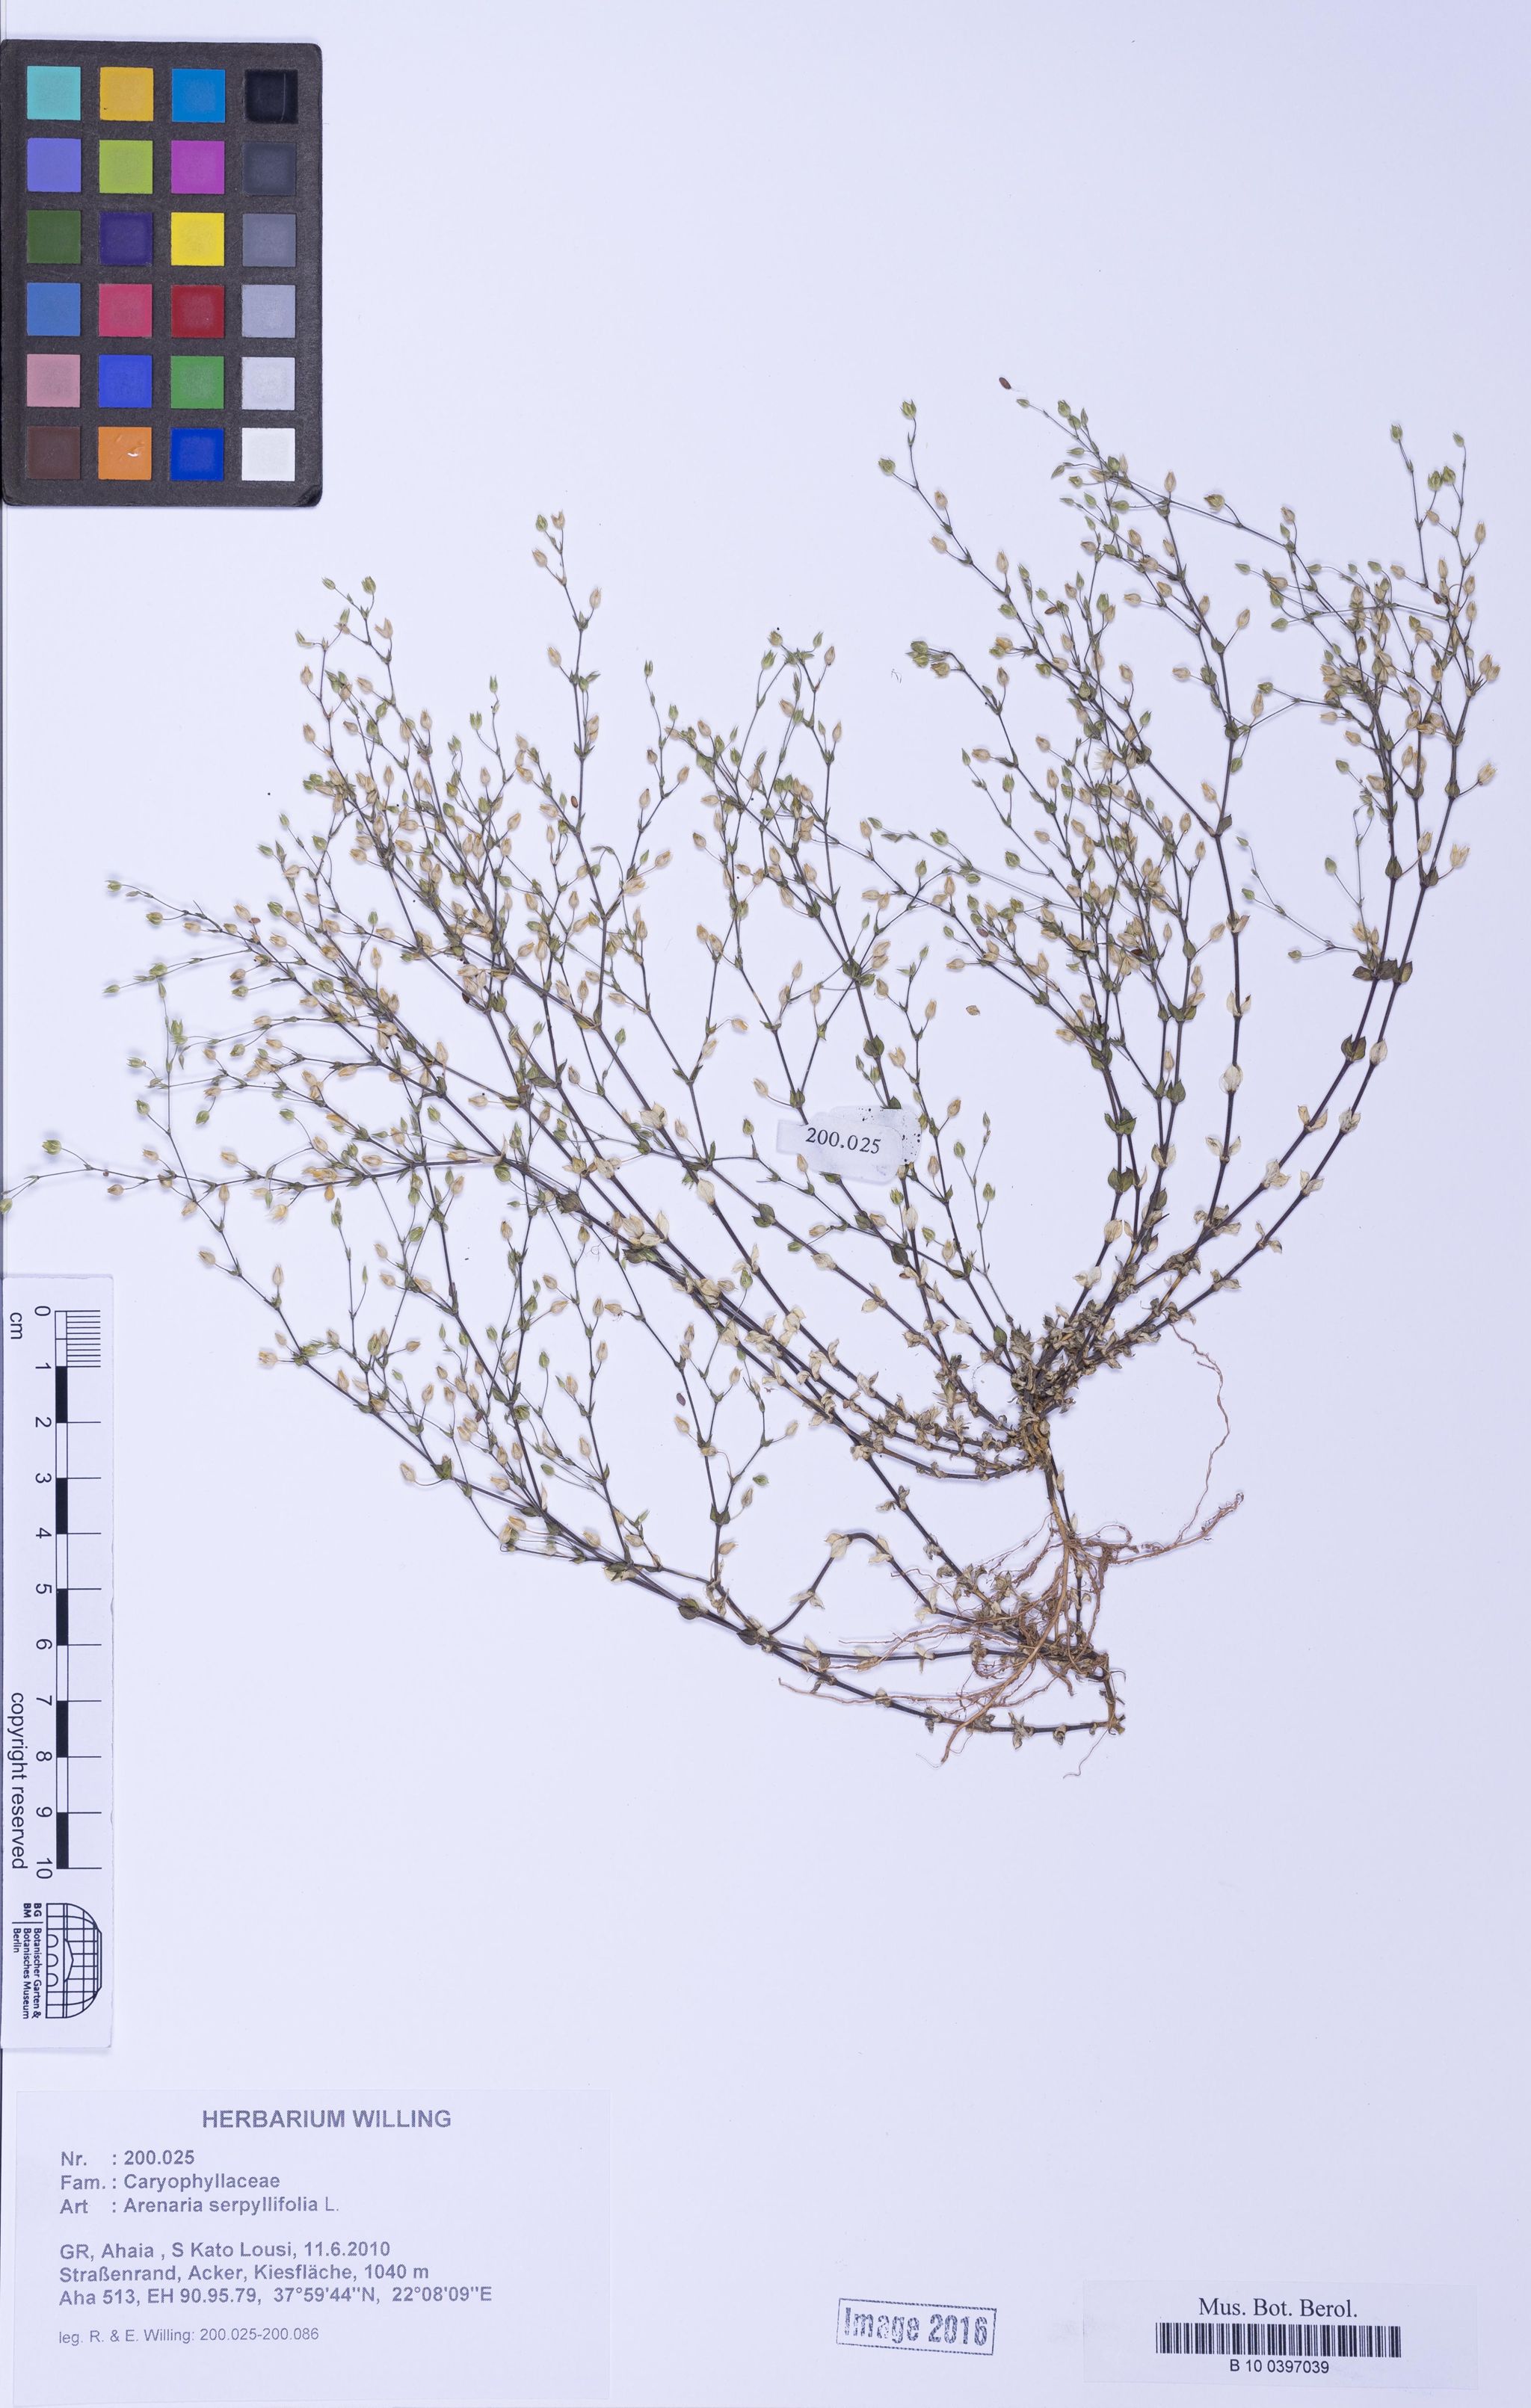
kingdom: Plantae
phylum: Tracheophyta
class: Magnoliopsida
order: Caryophyllales
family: Caryophyllaceae
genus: Arenaria
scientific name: Arenaria serpyllifolia
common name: Thyme-leaved sandwort
